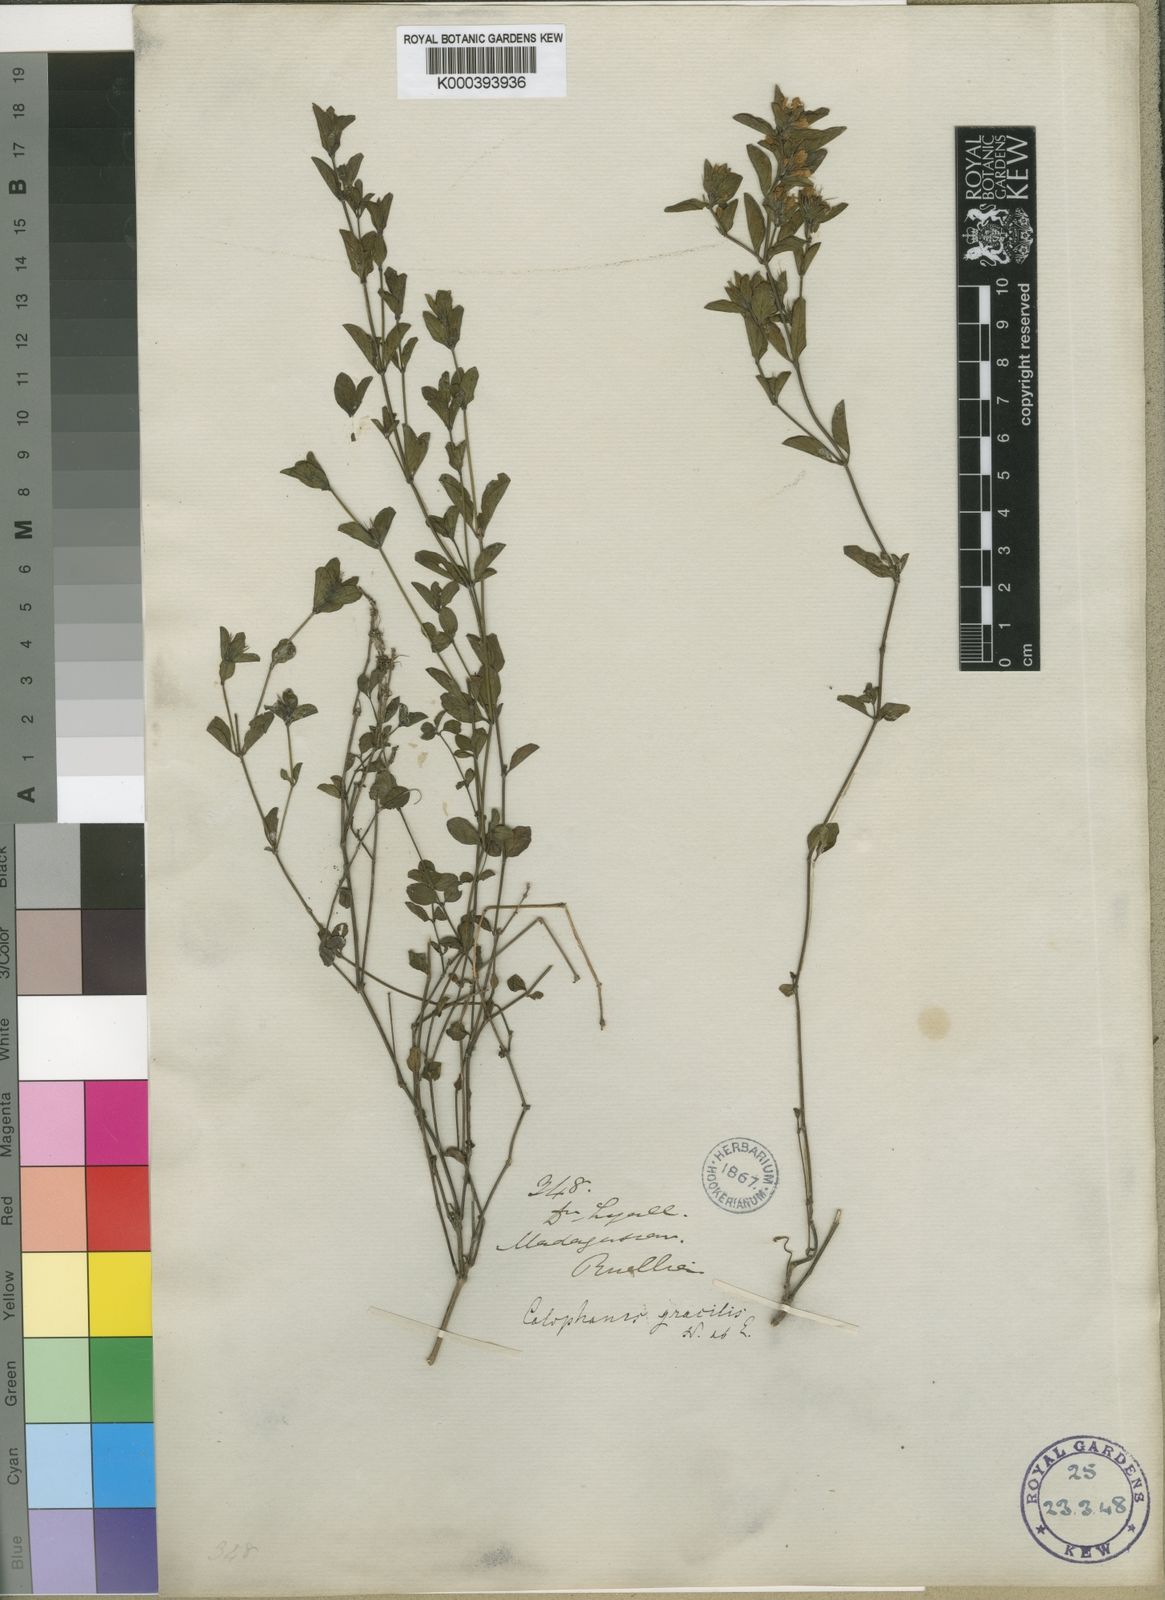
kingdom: Plantae
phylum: Tracheophyta
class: Magnoliopsida
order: Lamiales
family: Acanthaceae
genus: Dyschoriste
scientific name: Dyschoriste gracilis
